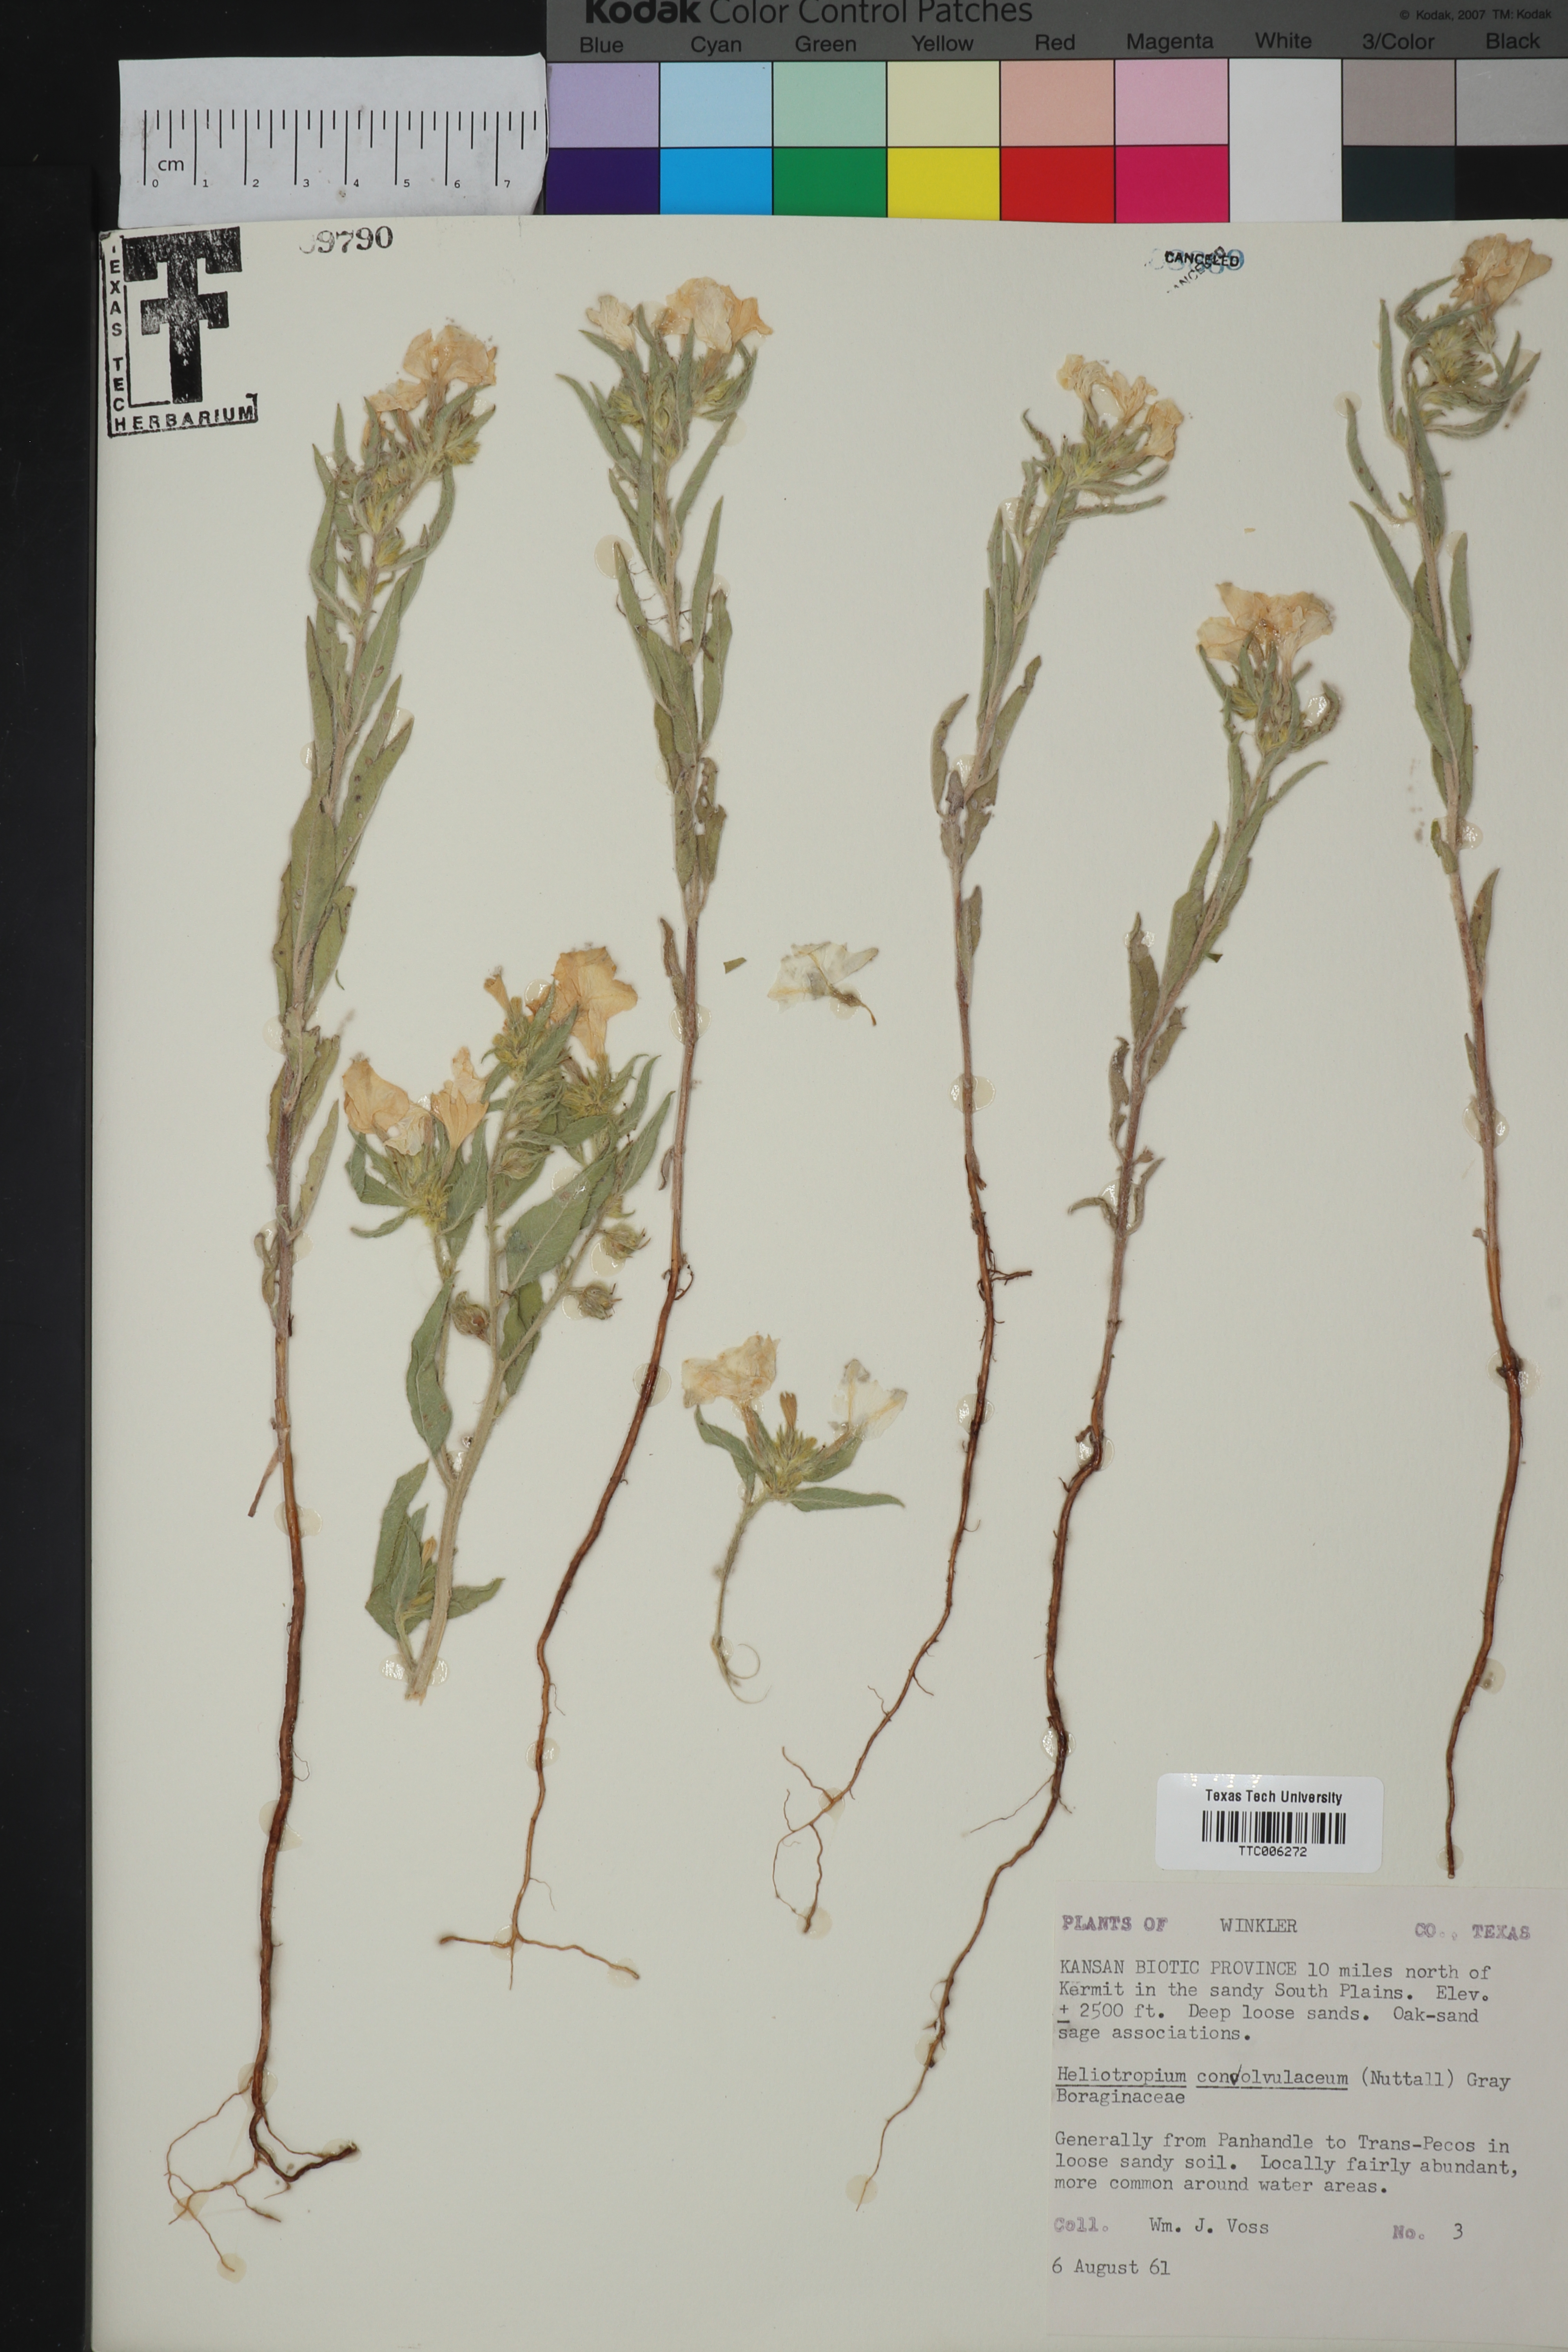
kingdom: Plantae
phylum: Tracheophyta
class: Magnoliopsida
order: Boraginales
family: Heliotropiaceae
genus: Euploca
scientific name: Euploca convolvulacea
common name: Bindweed heliotrope
